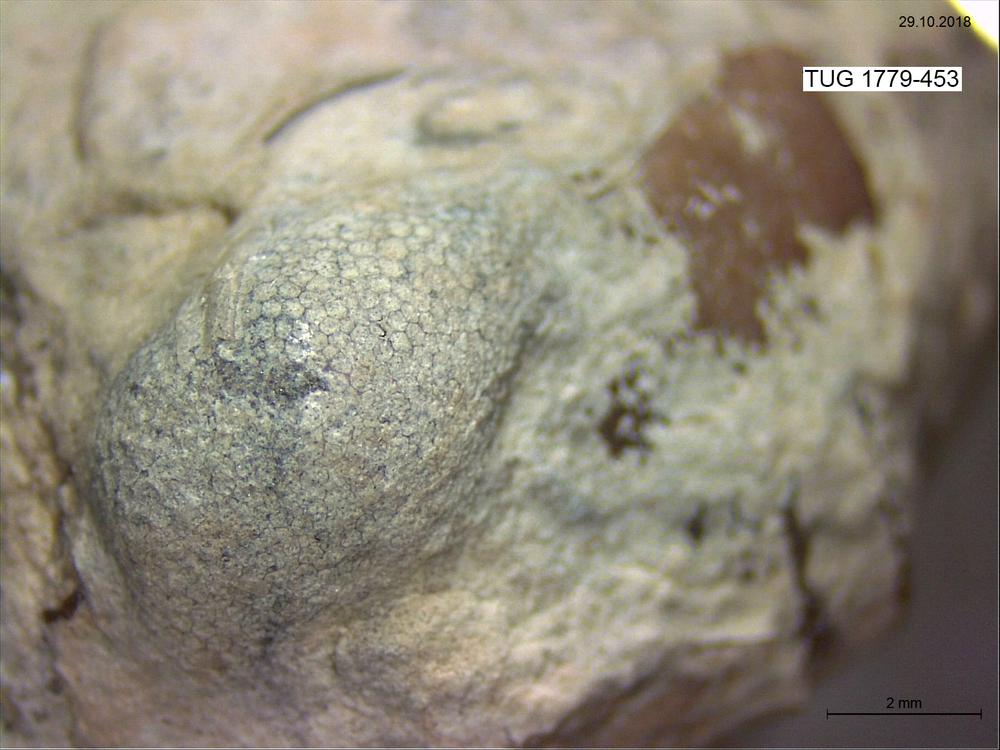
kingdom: Animalia
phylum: Bryozoa
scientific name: Bryozoa
